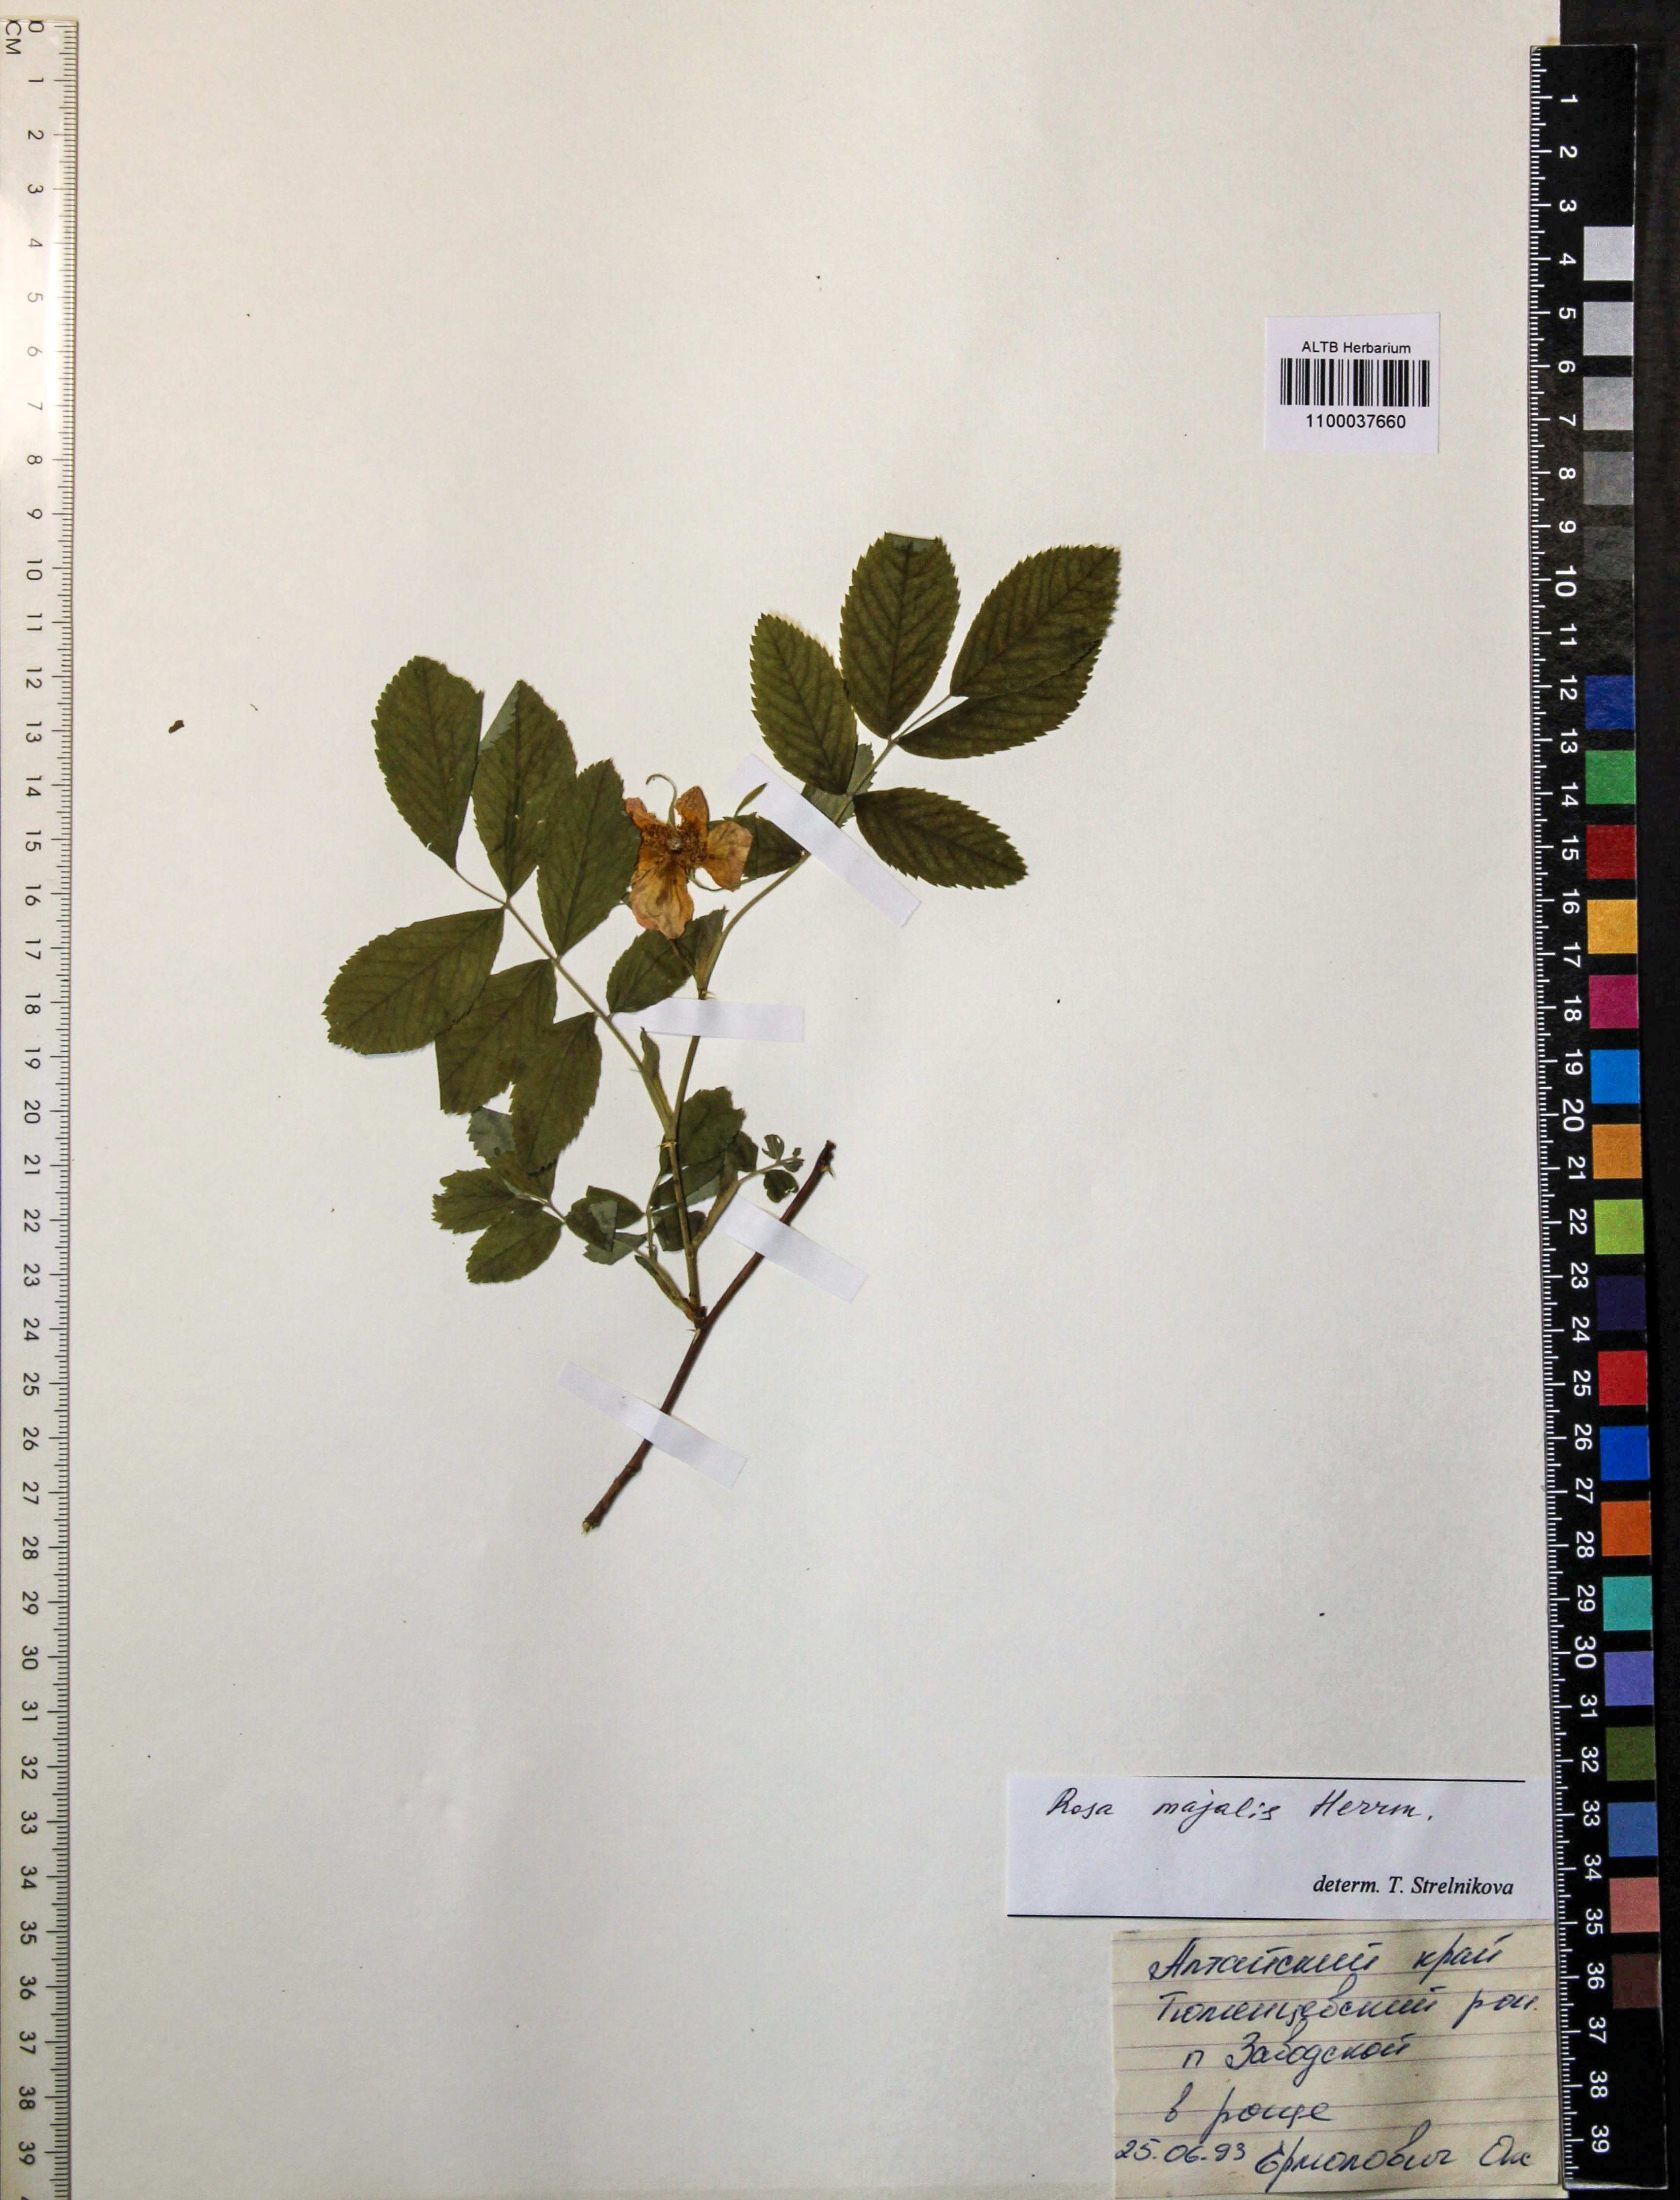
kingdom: Plantae
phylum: Tracheophyta
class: Magnoliopsida
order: Rosales
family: Rosaceae
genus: Rosa
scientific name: Rosa majalis
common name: Cinnamon rose
